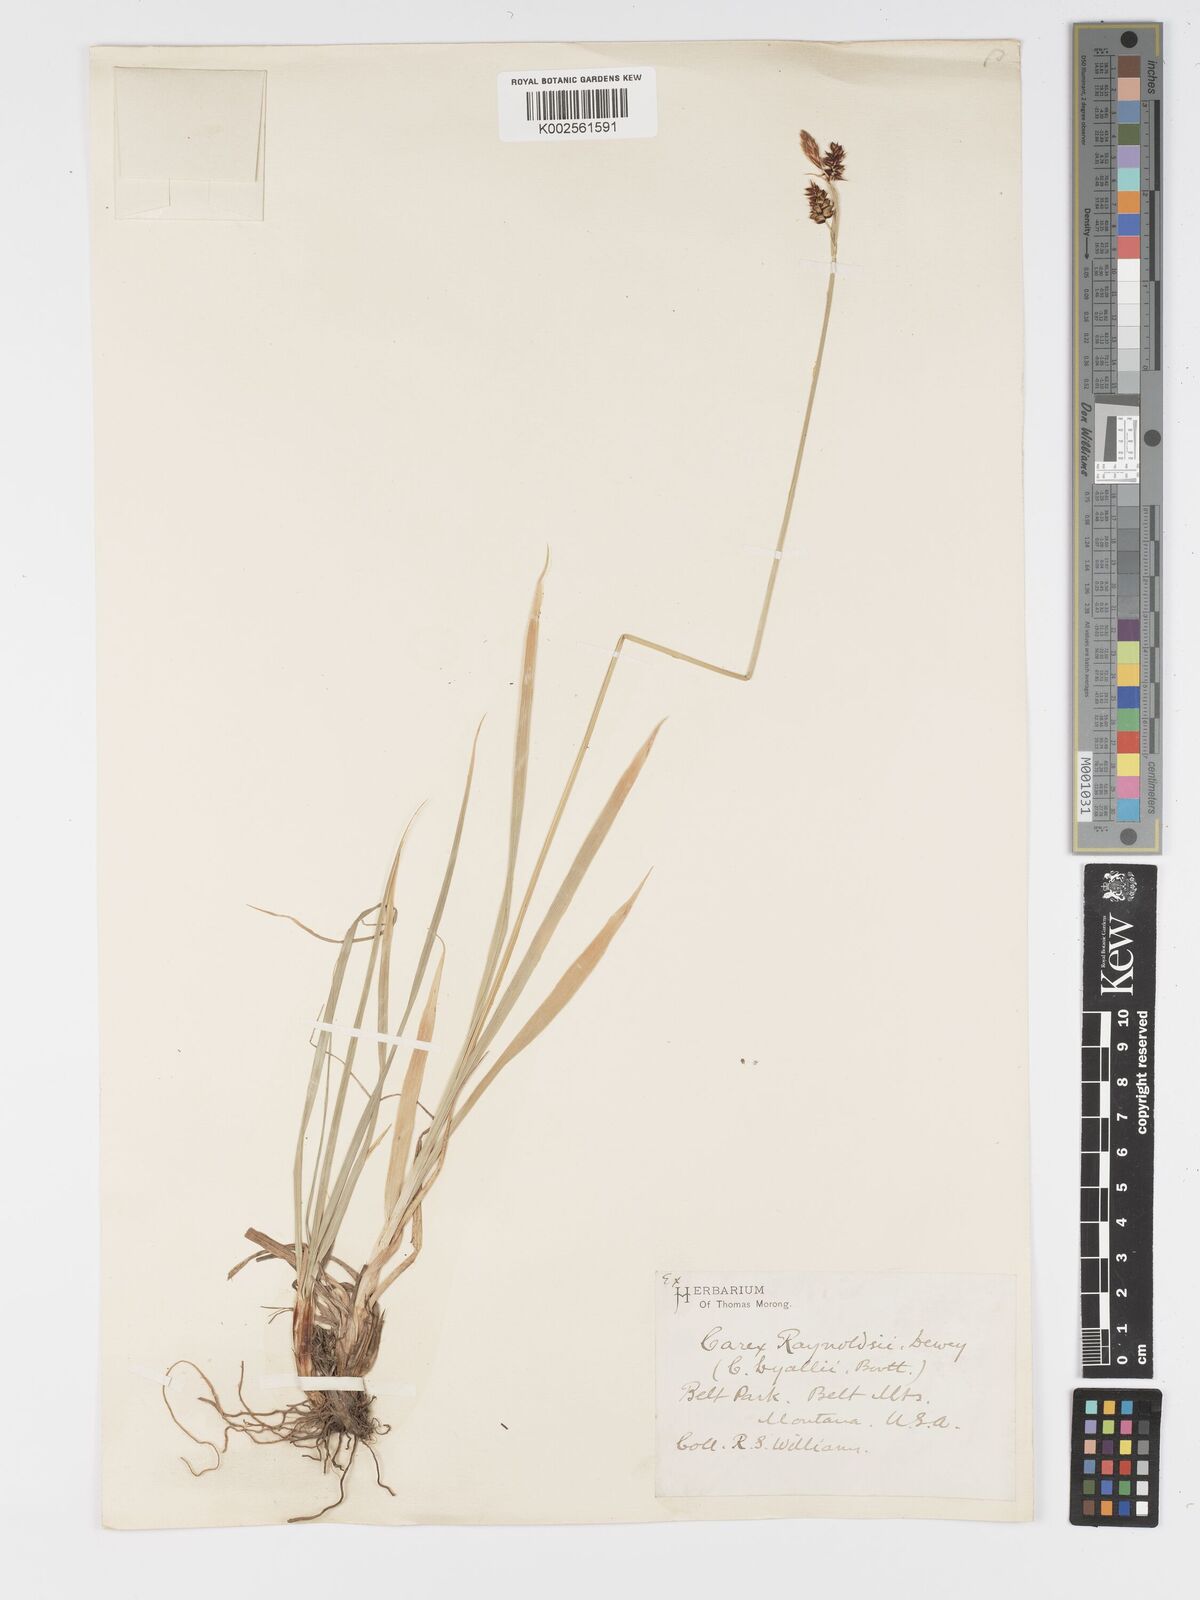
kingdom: Plantae
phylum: Tracheophyta
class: Liliopsida
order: Poales
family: Cyperaceae
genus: Carex
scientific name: Carex raynoldsii
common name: Raynolds' sedge
